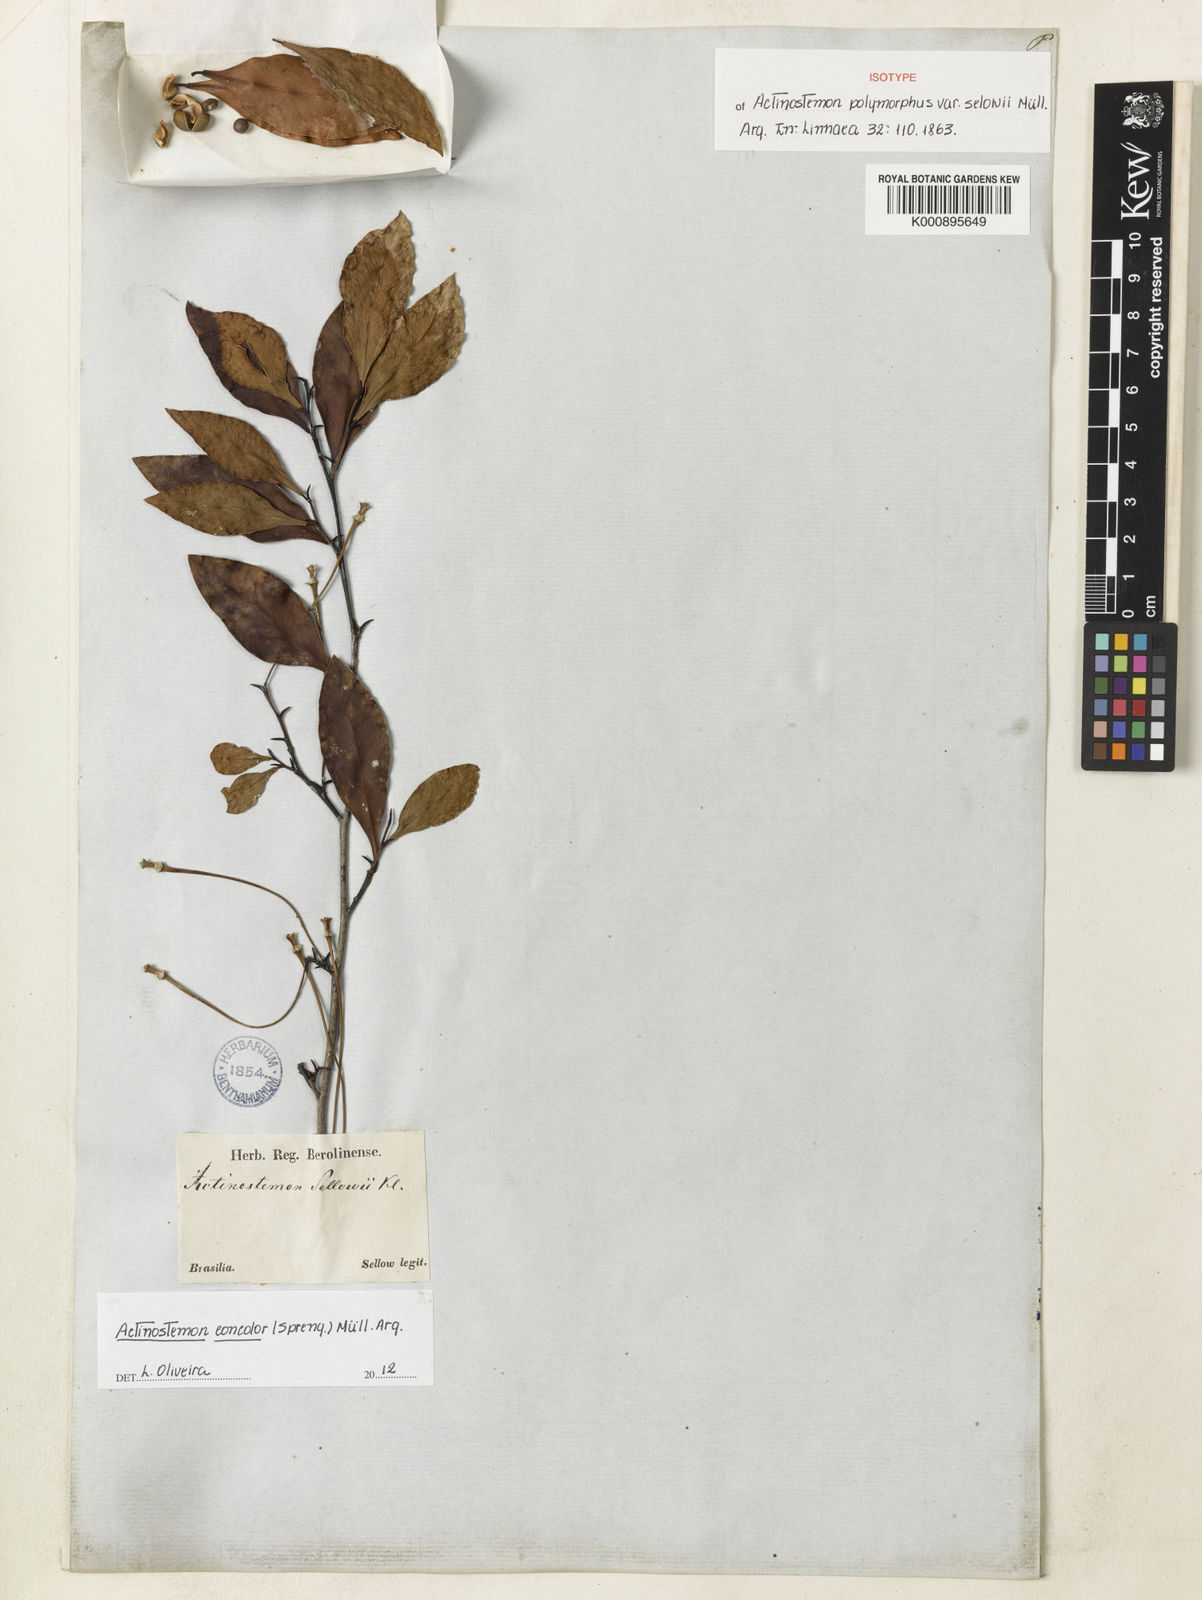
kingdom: Plantae
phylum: Tracheophyta
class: Magnoliopsida
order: Malpighiales
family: Euphorbiaceae
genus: Actinostemon
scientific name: Actinostemon
